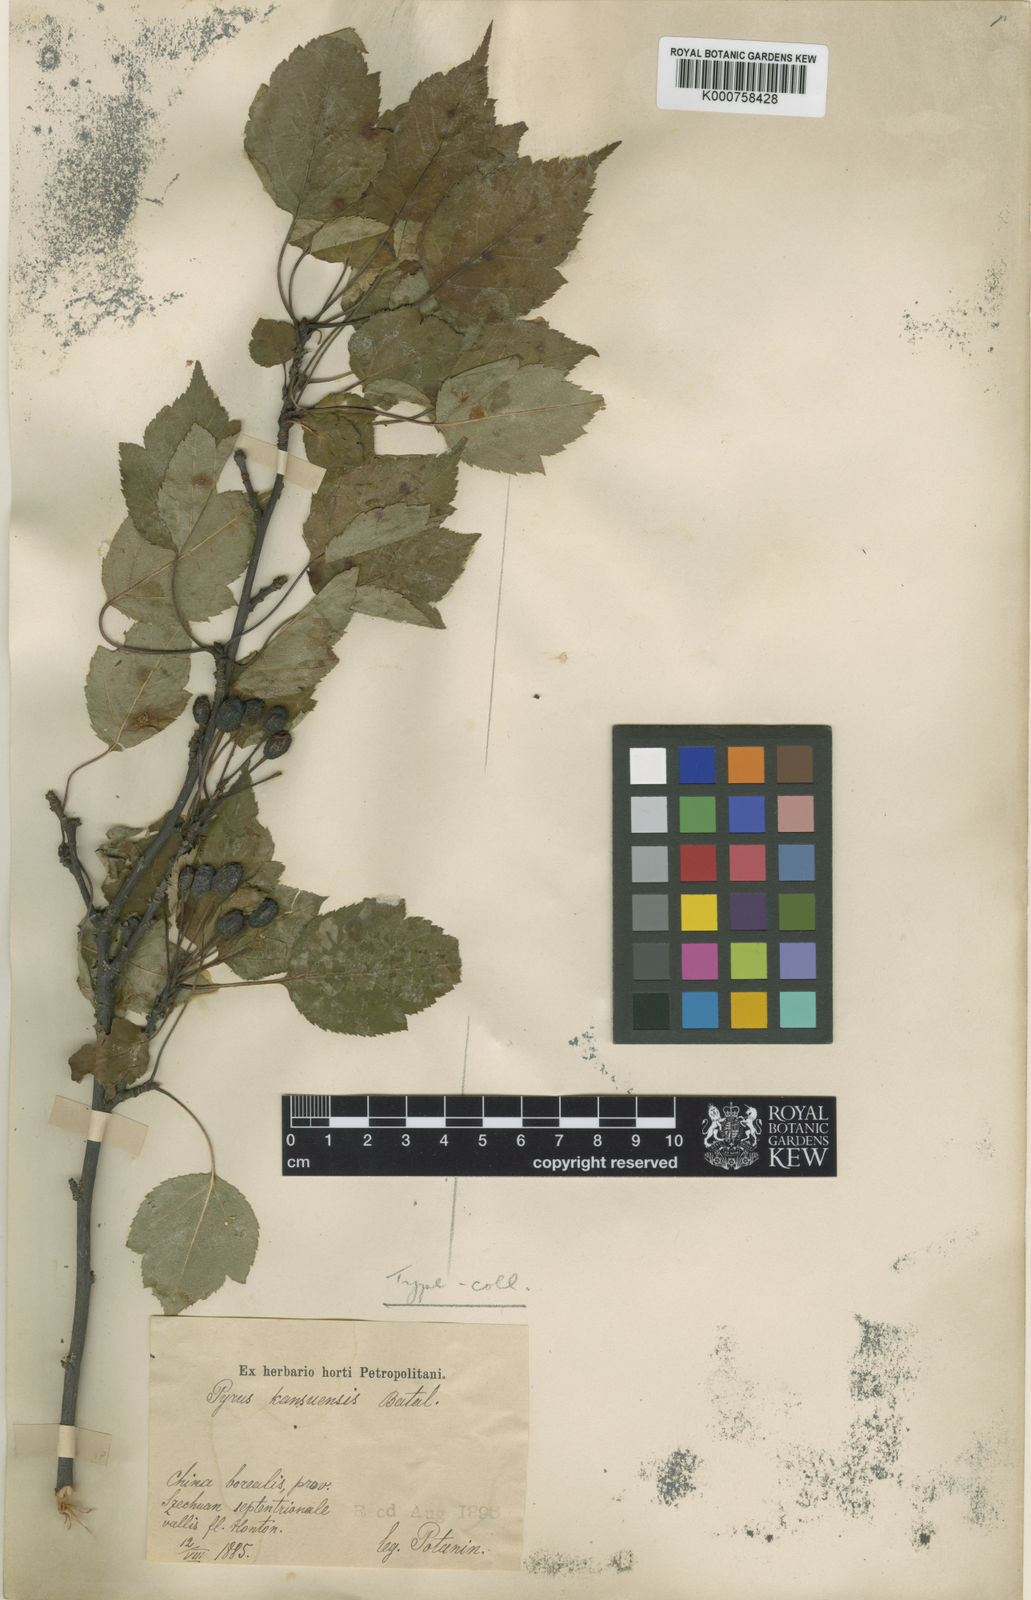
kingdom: Plantae
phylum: Tracheophyta
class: Magnoliopsida
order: Rosales
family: Rosaceae
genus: Malus
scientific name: Malus kansuensis
